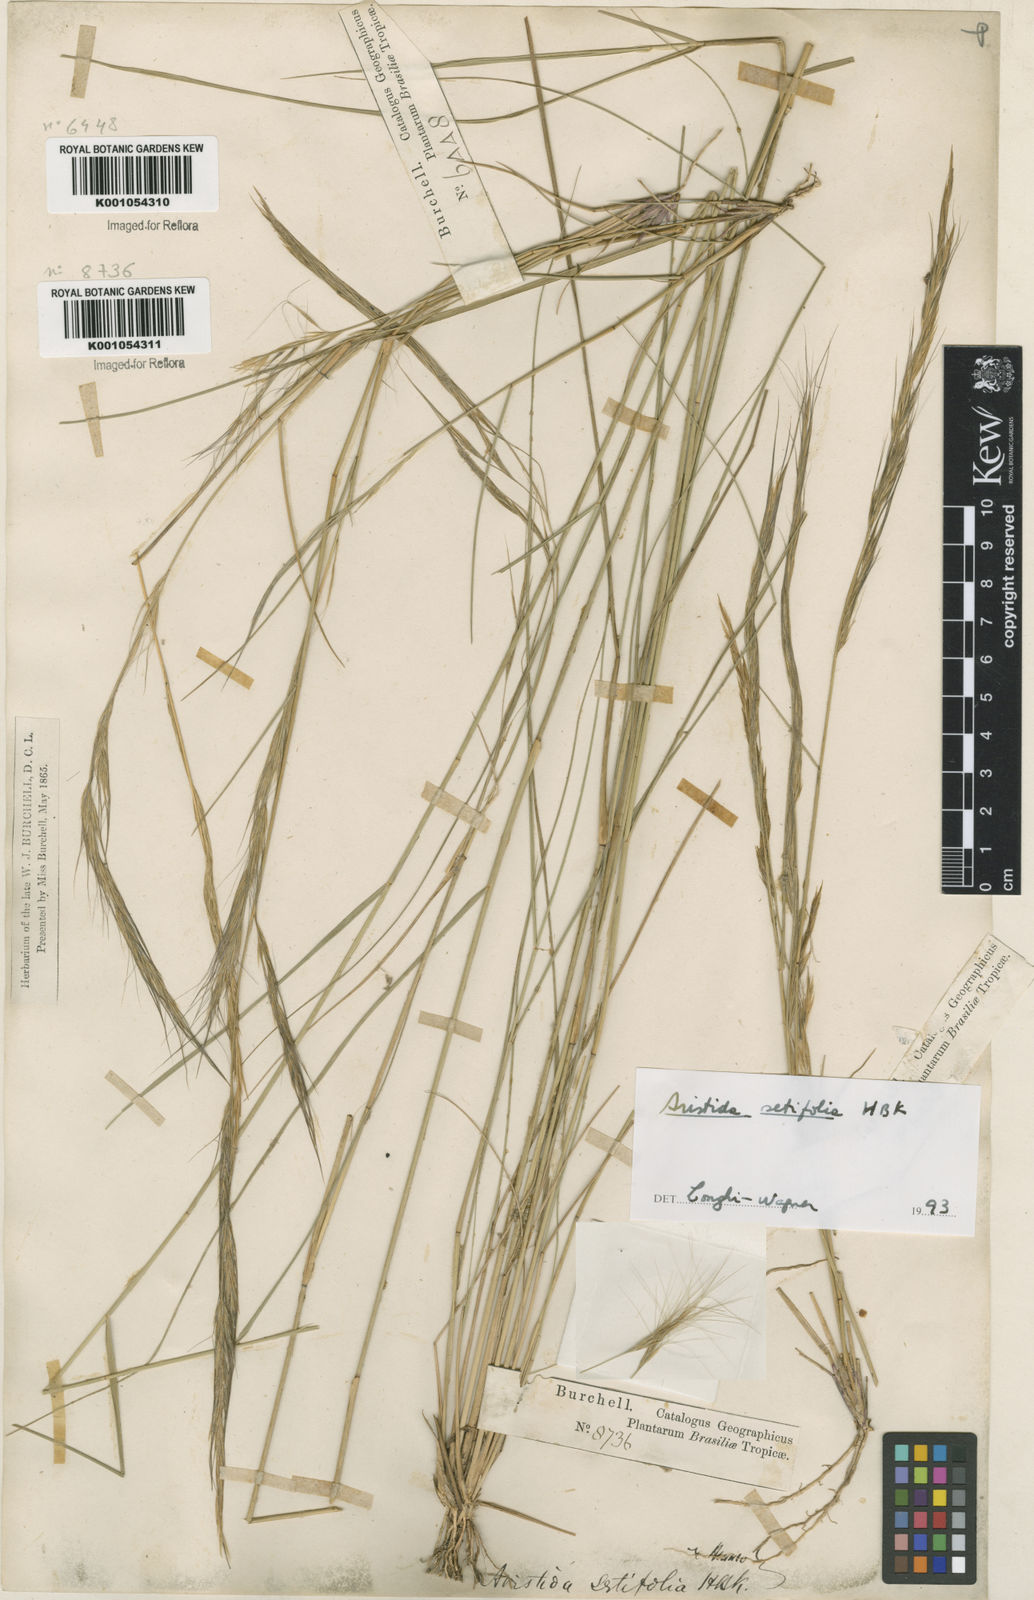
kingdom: Plantae
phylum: Tracheophyta
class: Liliopsida
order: Poales
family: Poaceae
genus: Aristida
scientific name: Aristida setifolia
